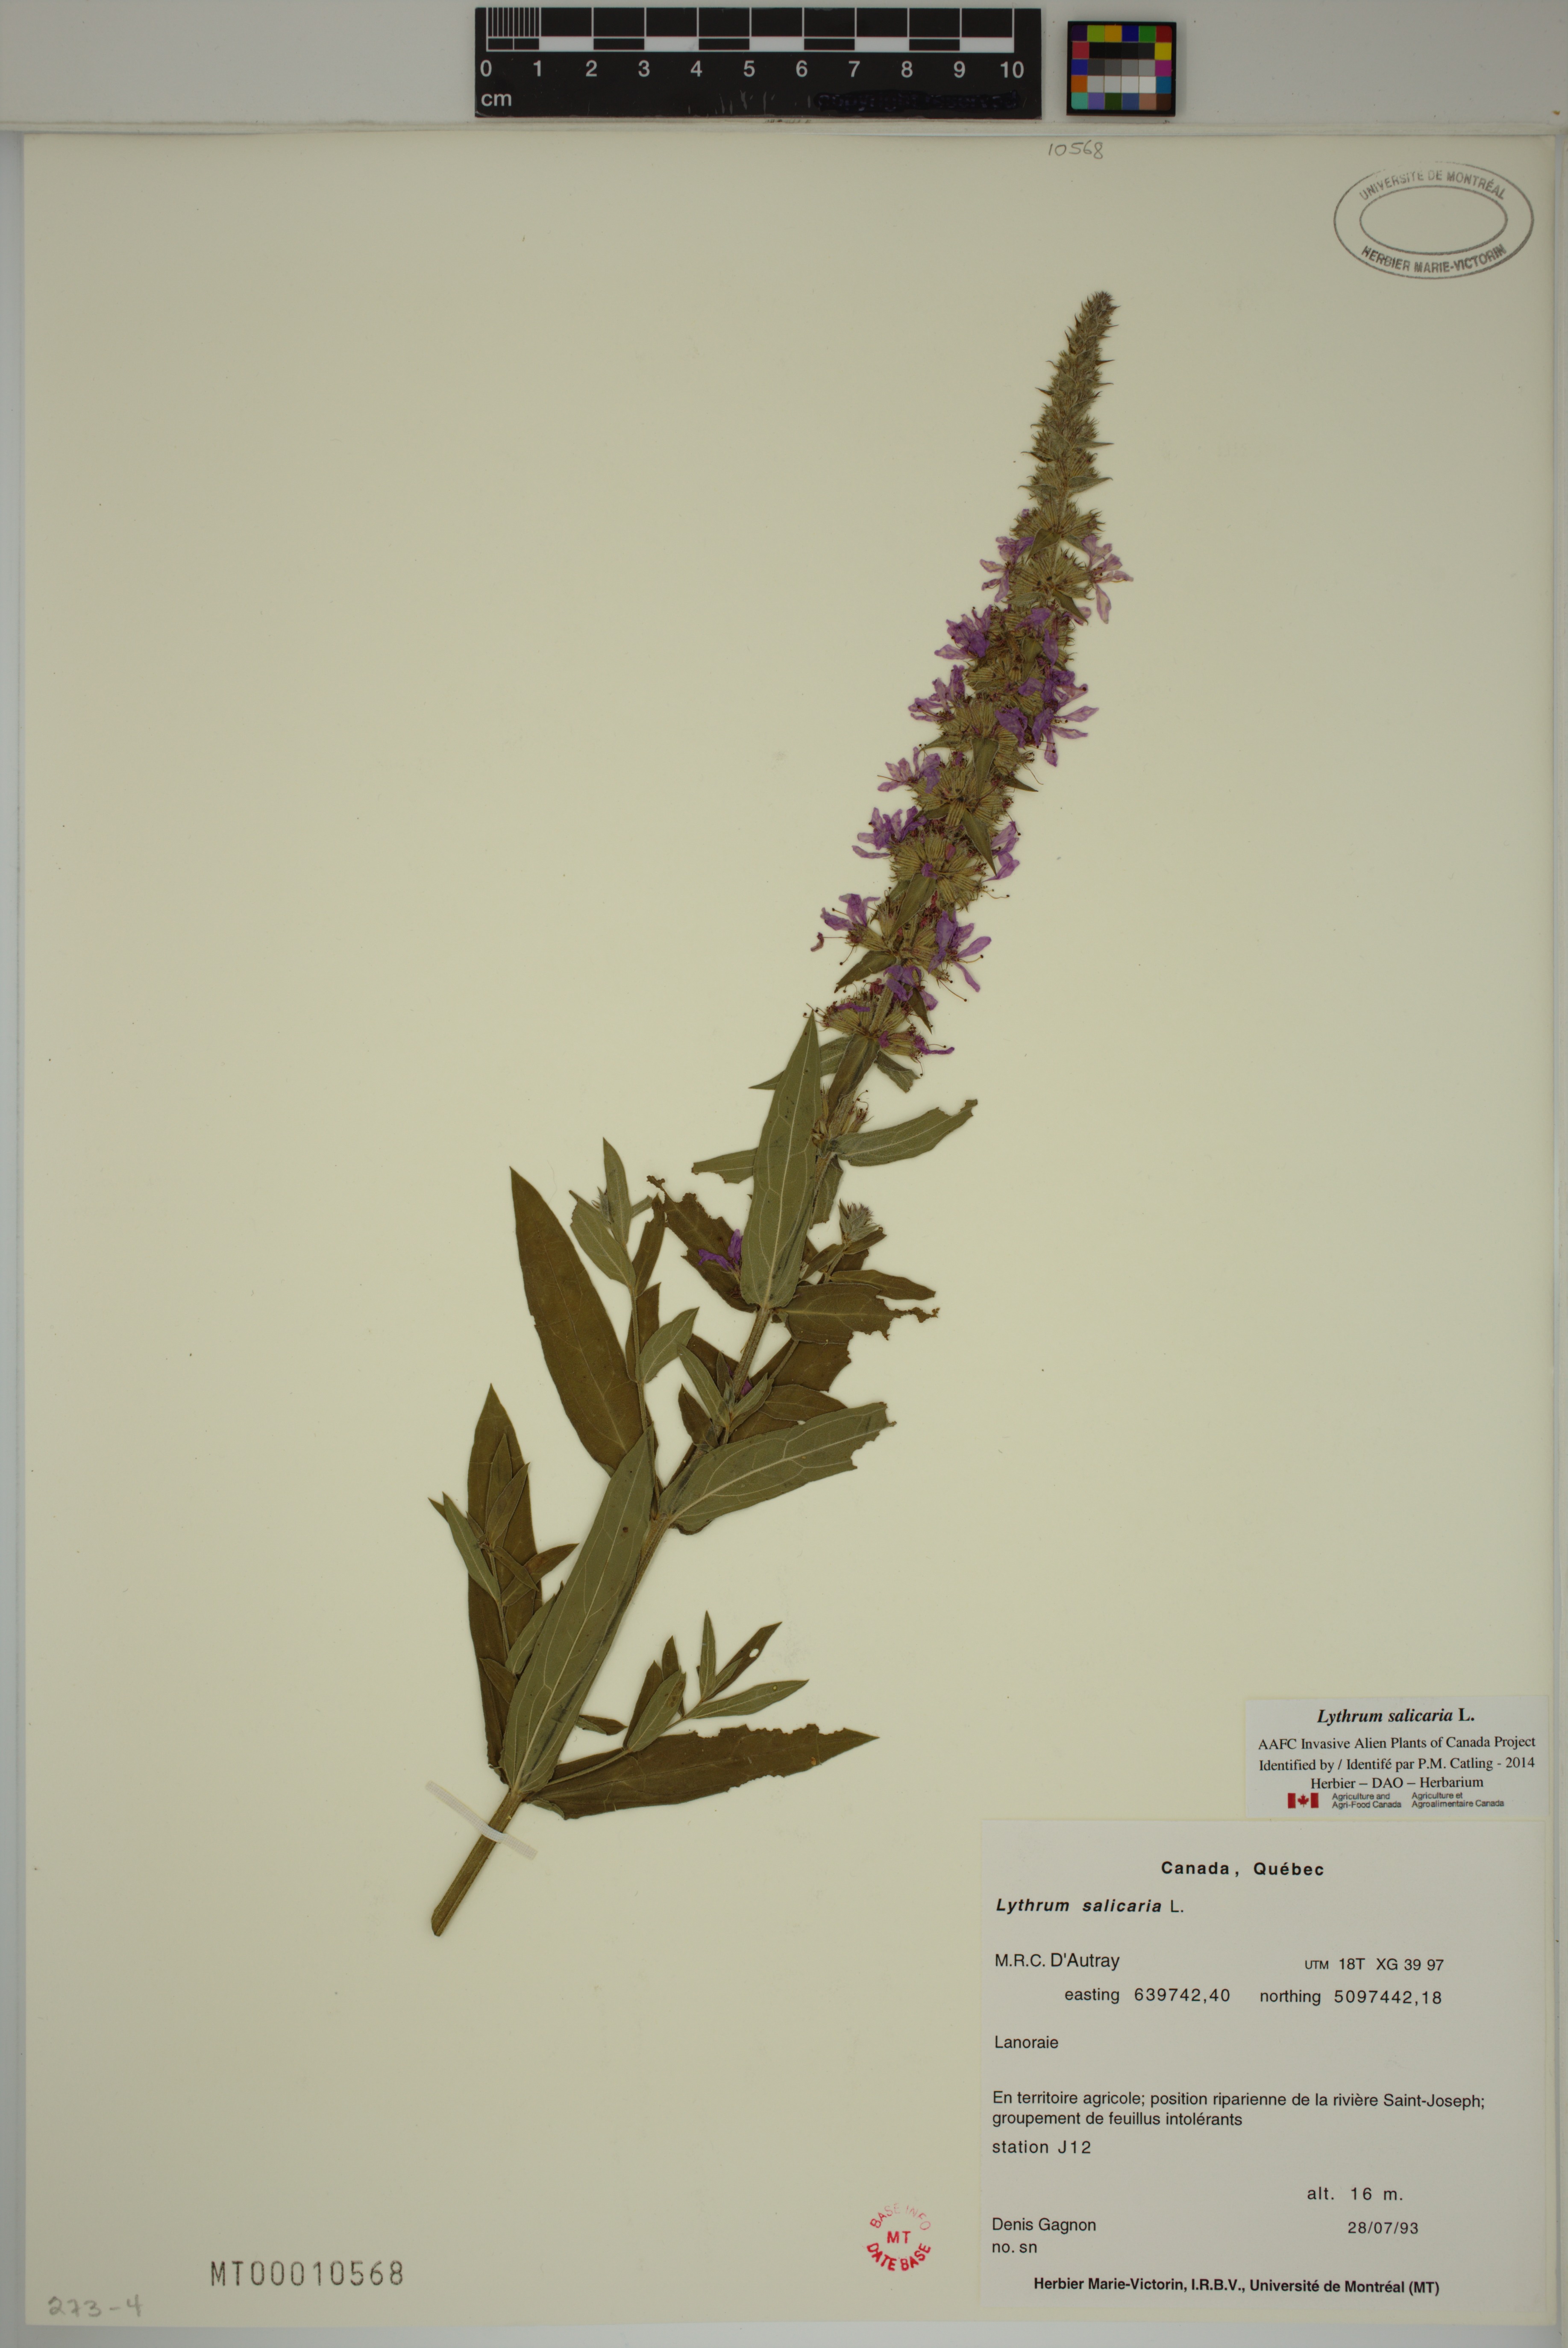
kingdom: Plantae
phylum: Tracheophyta
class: Magnoliopsida
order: Myrtales
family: Lythraceae
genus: Lythrum
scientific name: Lythrum salicaria
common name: Purple loosestrife
